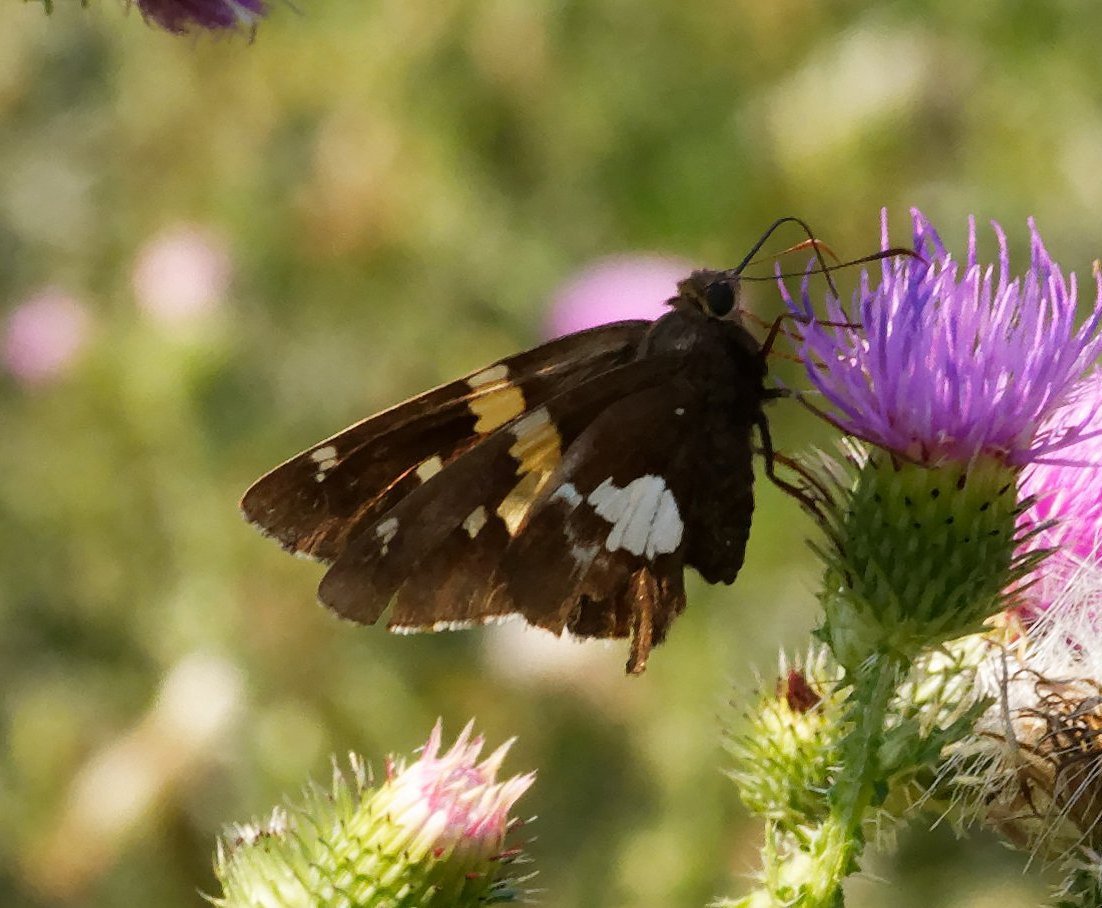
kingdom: Animalia
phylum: Arthropoda
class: Insecta
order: Lepidoptera
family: Hesperiidae
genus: Epargyreus
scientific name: Epargyreus clarus
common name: Silver-spotted Skipper
